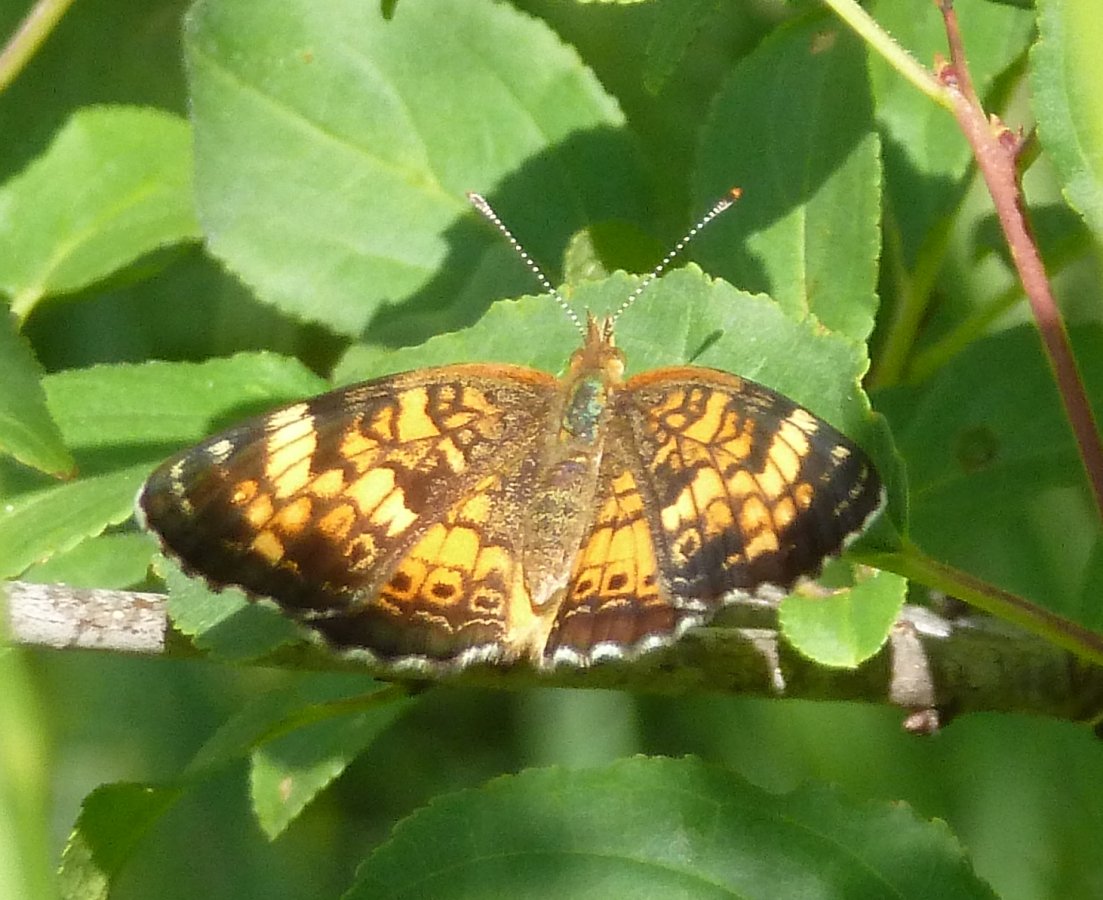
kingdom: Animalia
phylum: Arthropoda
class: Insecta
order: Lepidoptera
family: Nymphalidae
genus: Phyciodes
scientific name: Phyciodes tharos
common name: Northern Crescent
